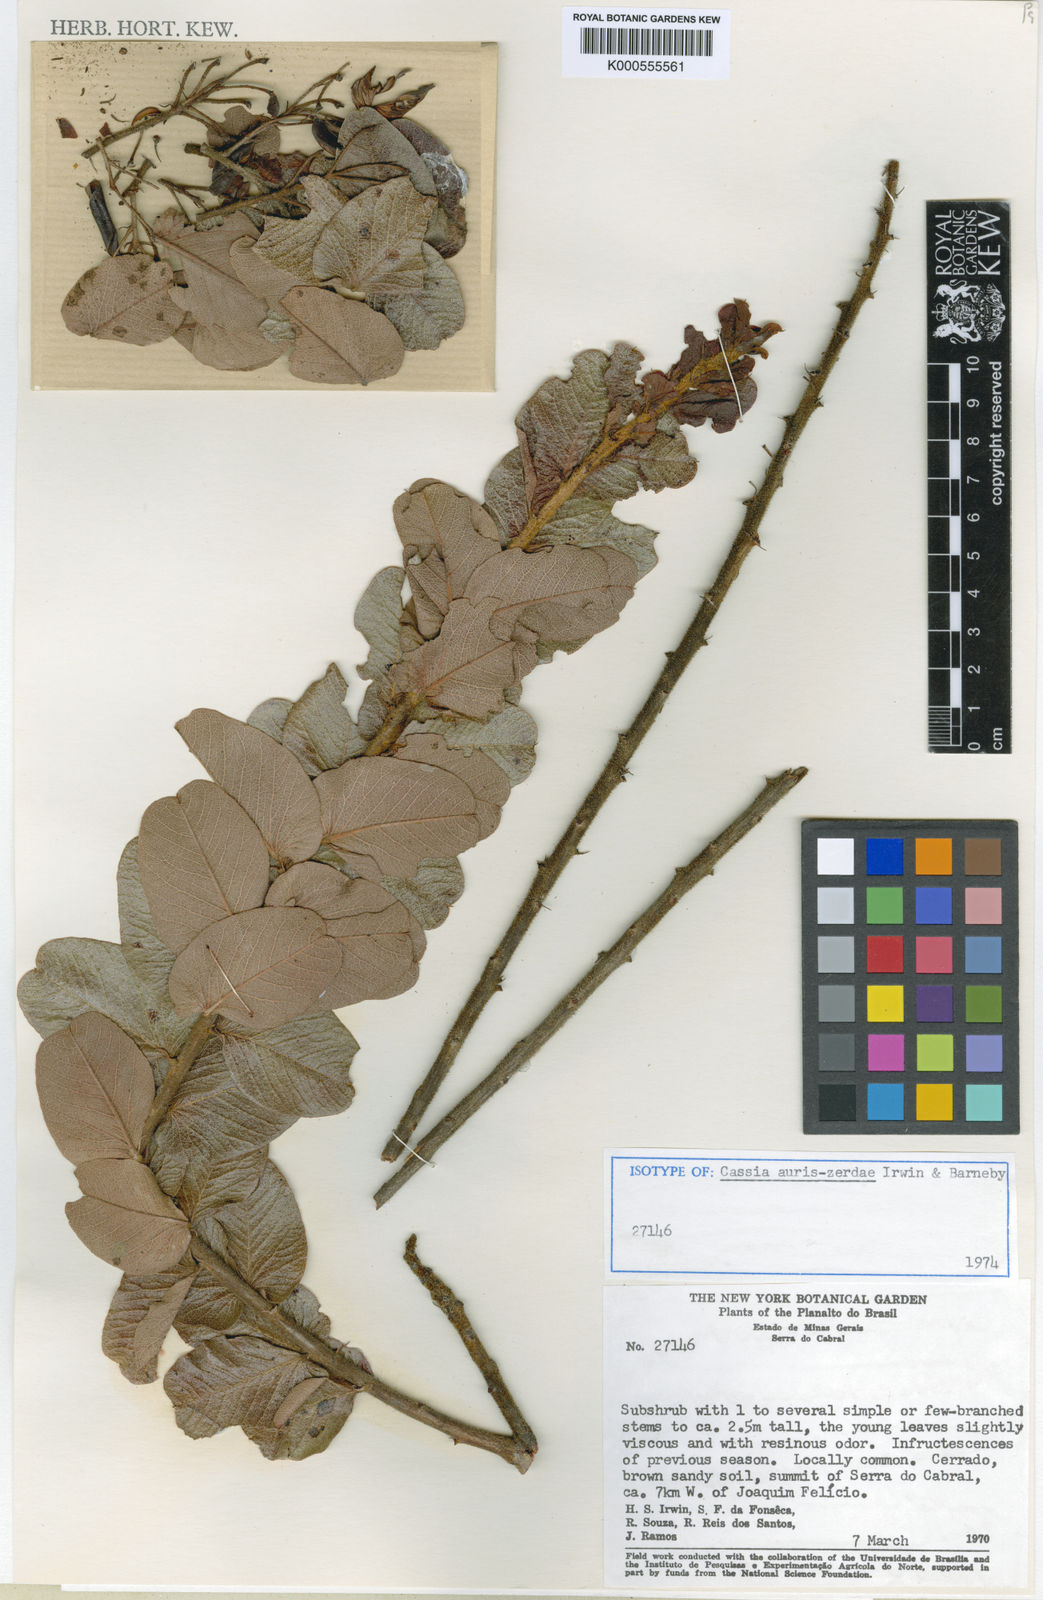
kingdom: Plantae
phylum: Tracheophyta
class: Magnoliopsida
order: Fabales
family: Fabaceae
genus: Chamaecrista
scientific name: Chamaecrista auris-zerdae
